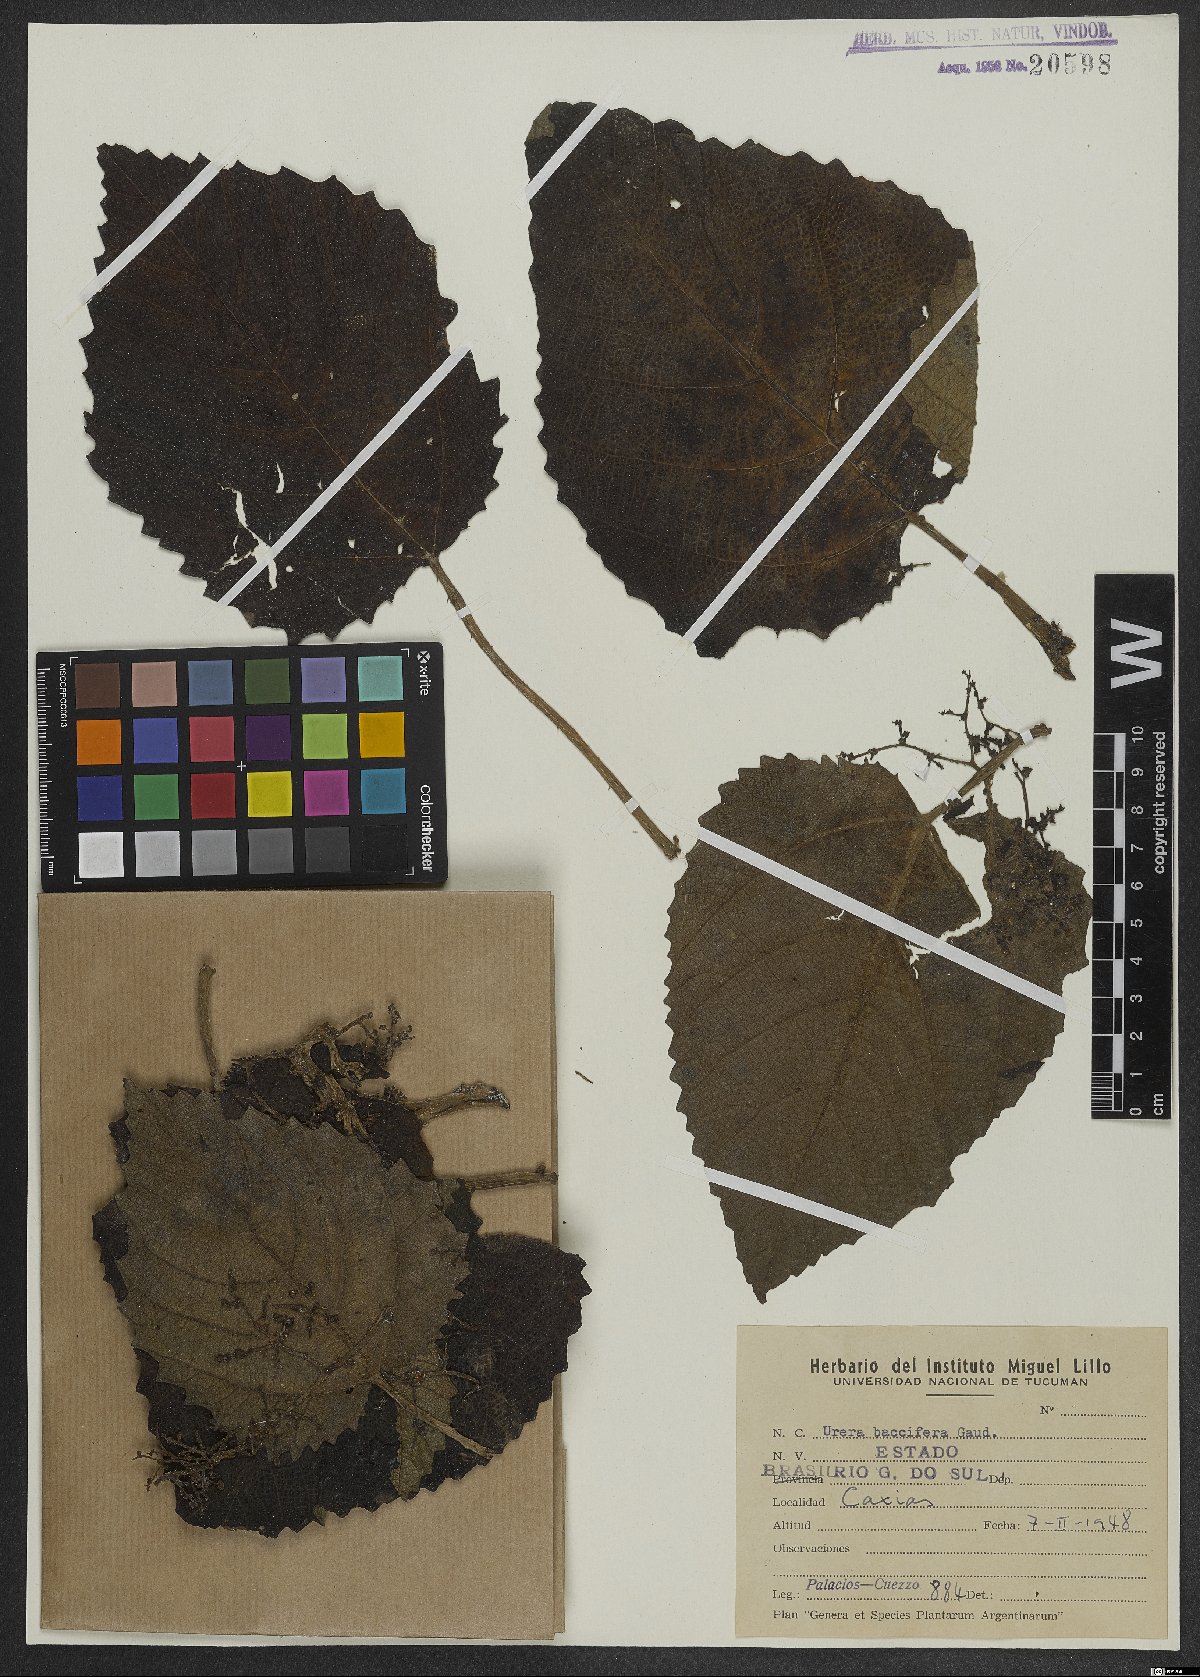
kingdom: Plantae
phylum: Tracheophyta
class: Magnoliopsida
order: Rosales
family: Urticaceae
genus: Urera
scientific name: Urera baccifera
